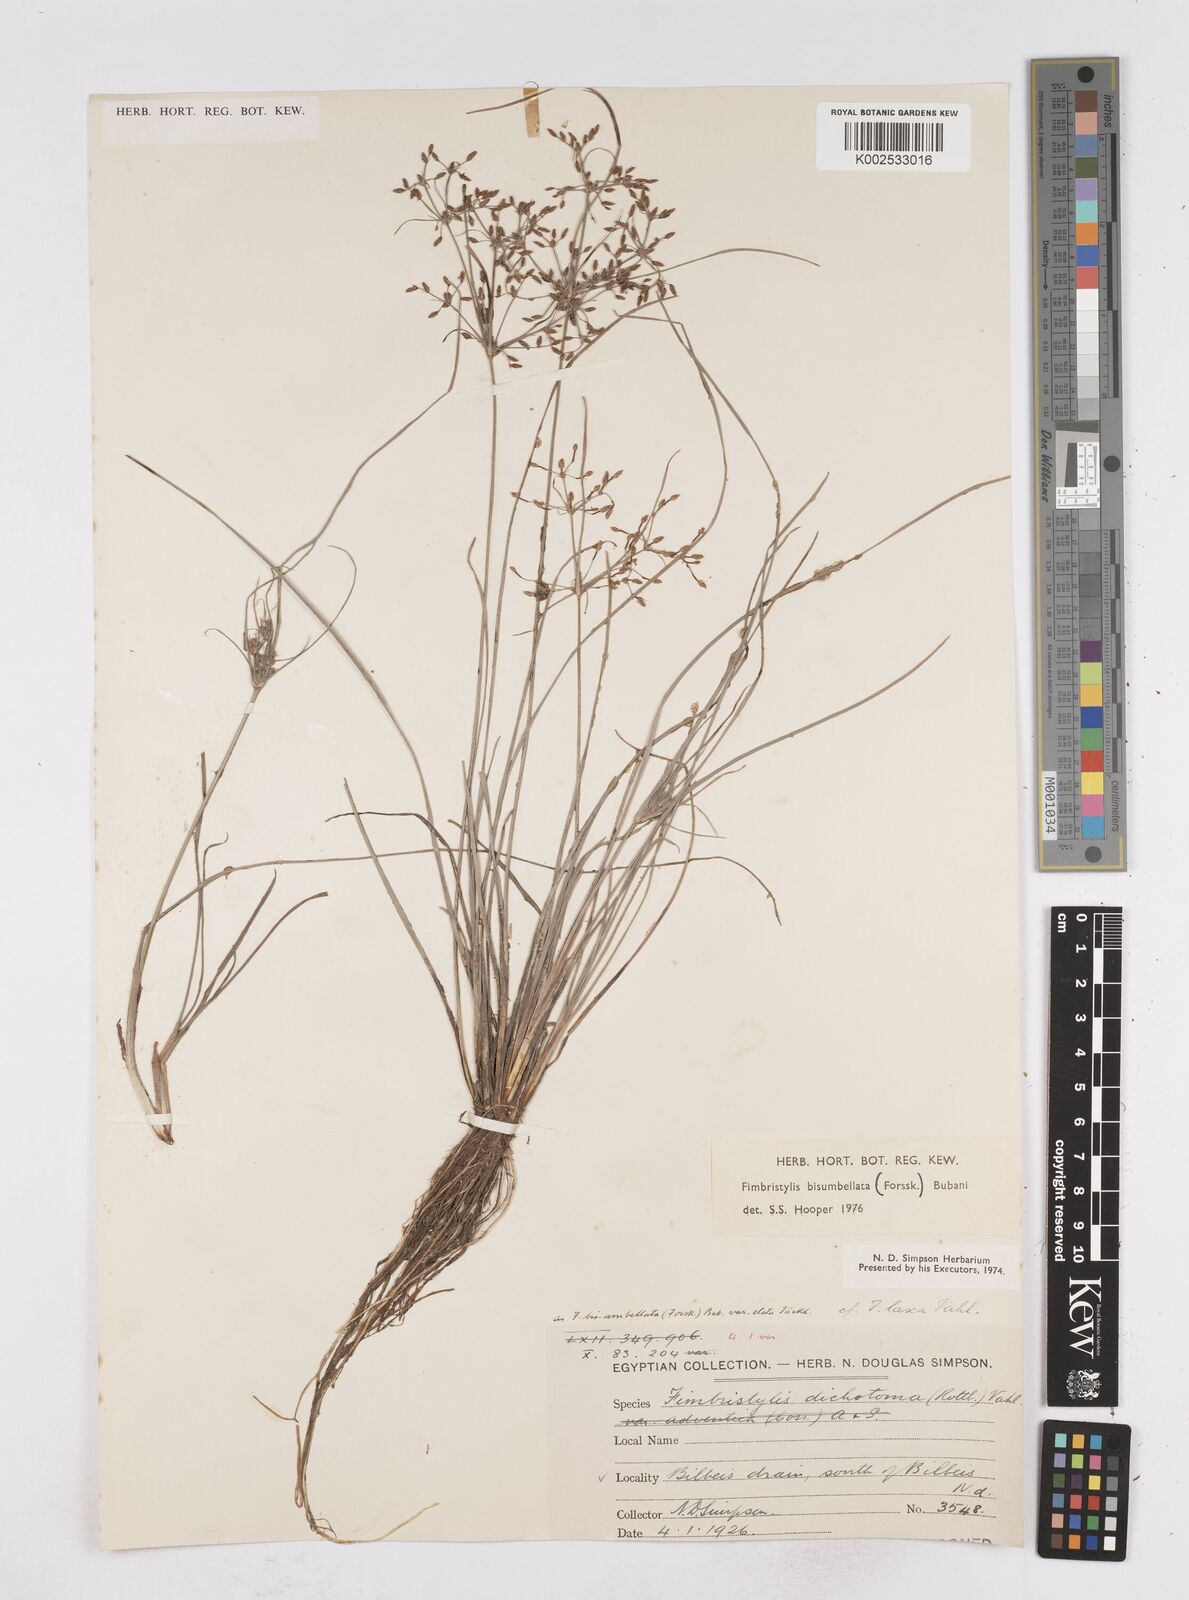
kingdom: Plantae
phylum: Tracheophyta
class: Liliopsida
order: Poales
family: Cyperaceae
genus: Fimbristylis
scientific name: Fimbristylis bisumbellata
